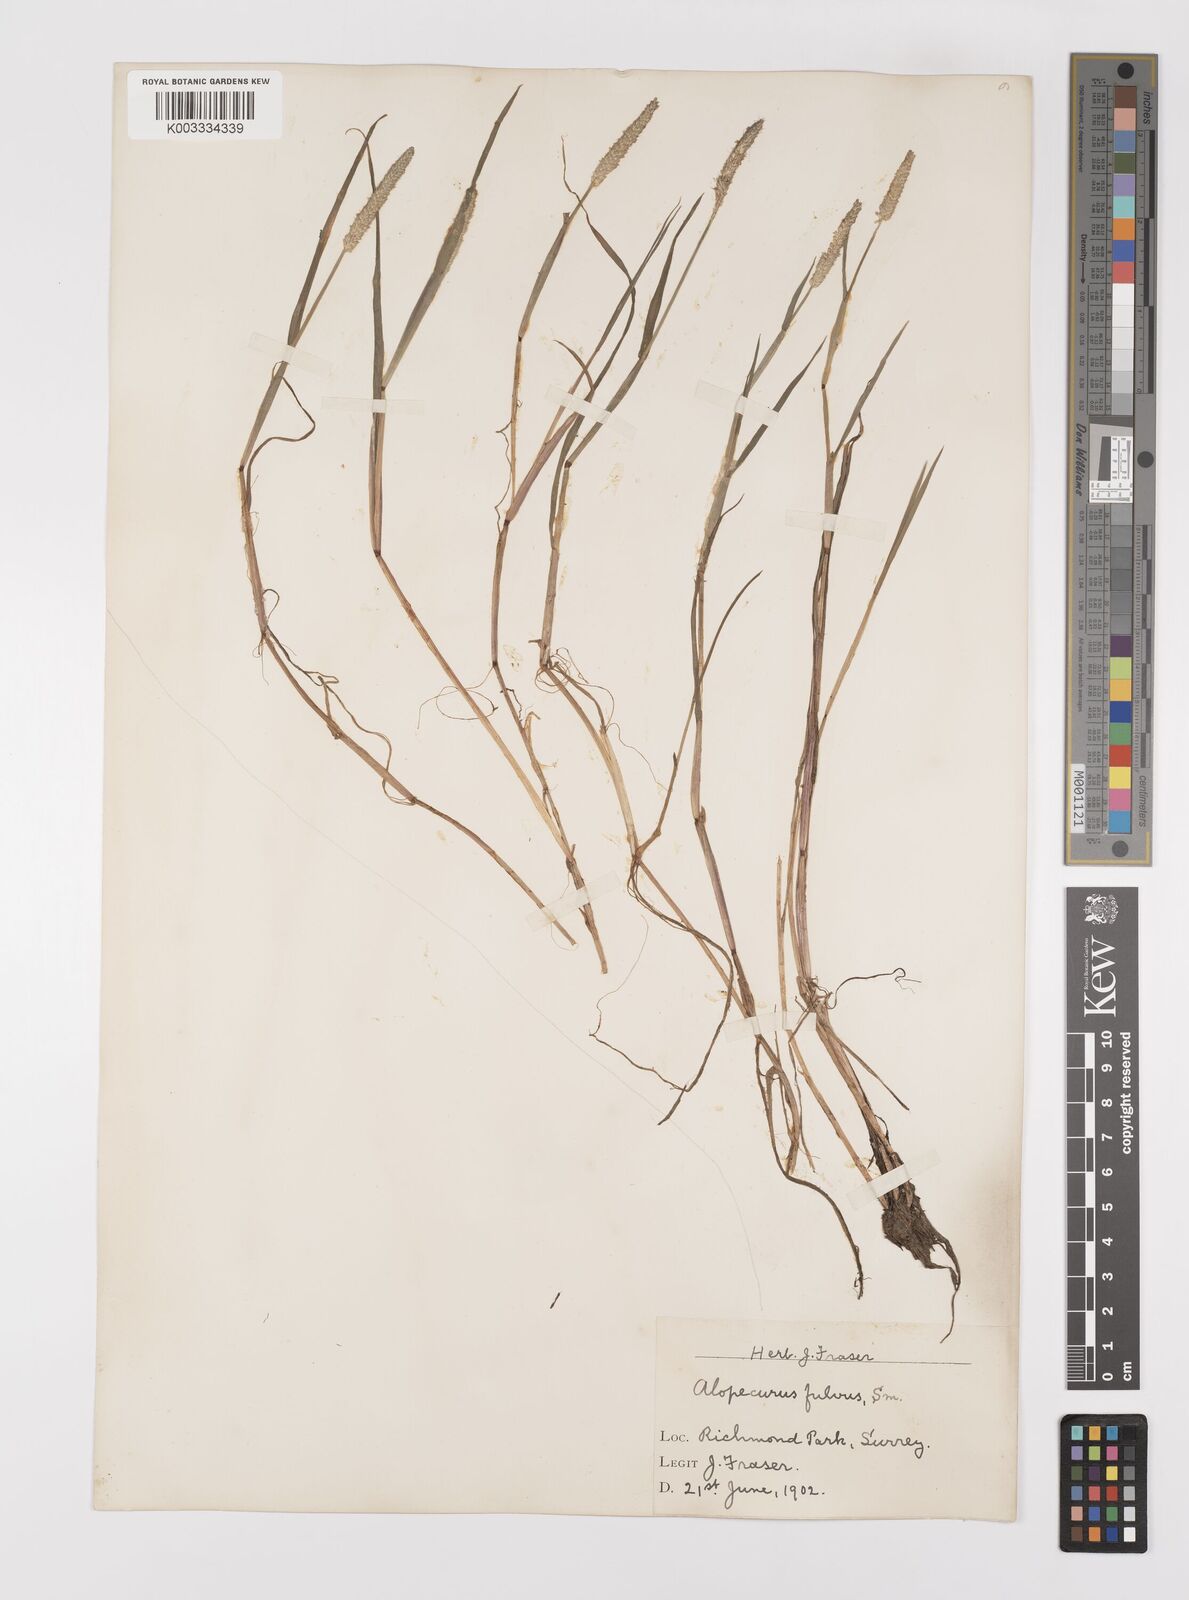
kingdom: Plantae
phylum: Tracheophyta
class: Liliopsida
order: Poales
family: Poaceae
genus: Alopecurus
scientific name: Alopecurus aequalis
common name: Orange foxtail
